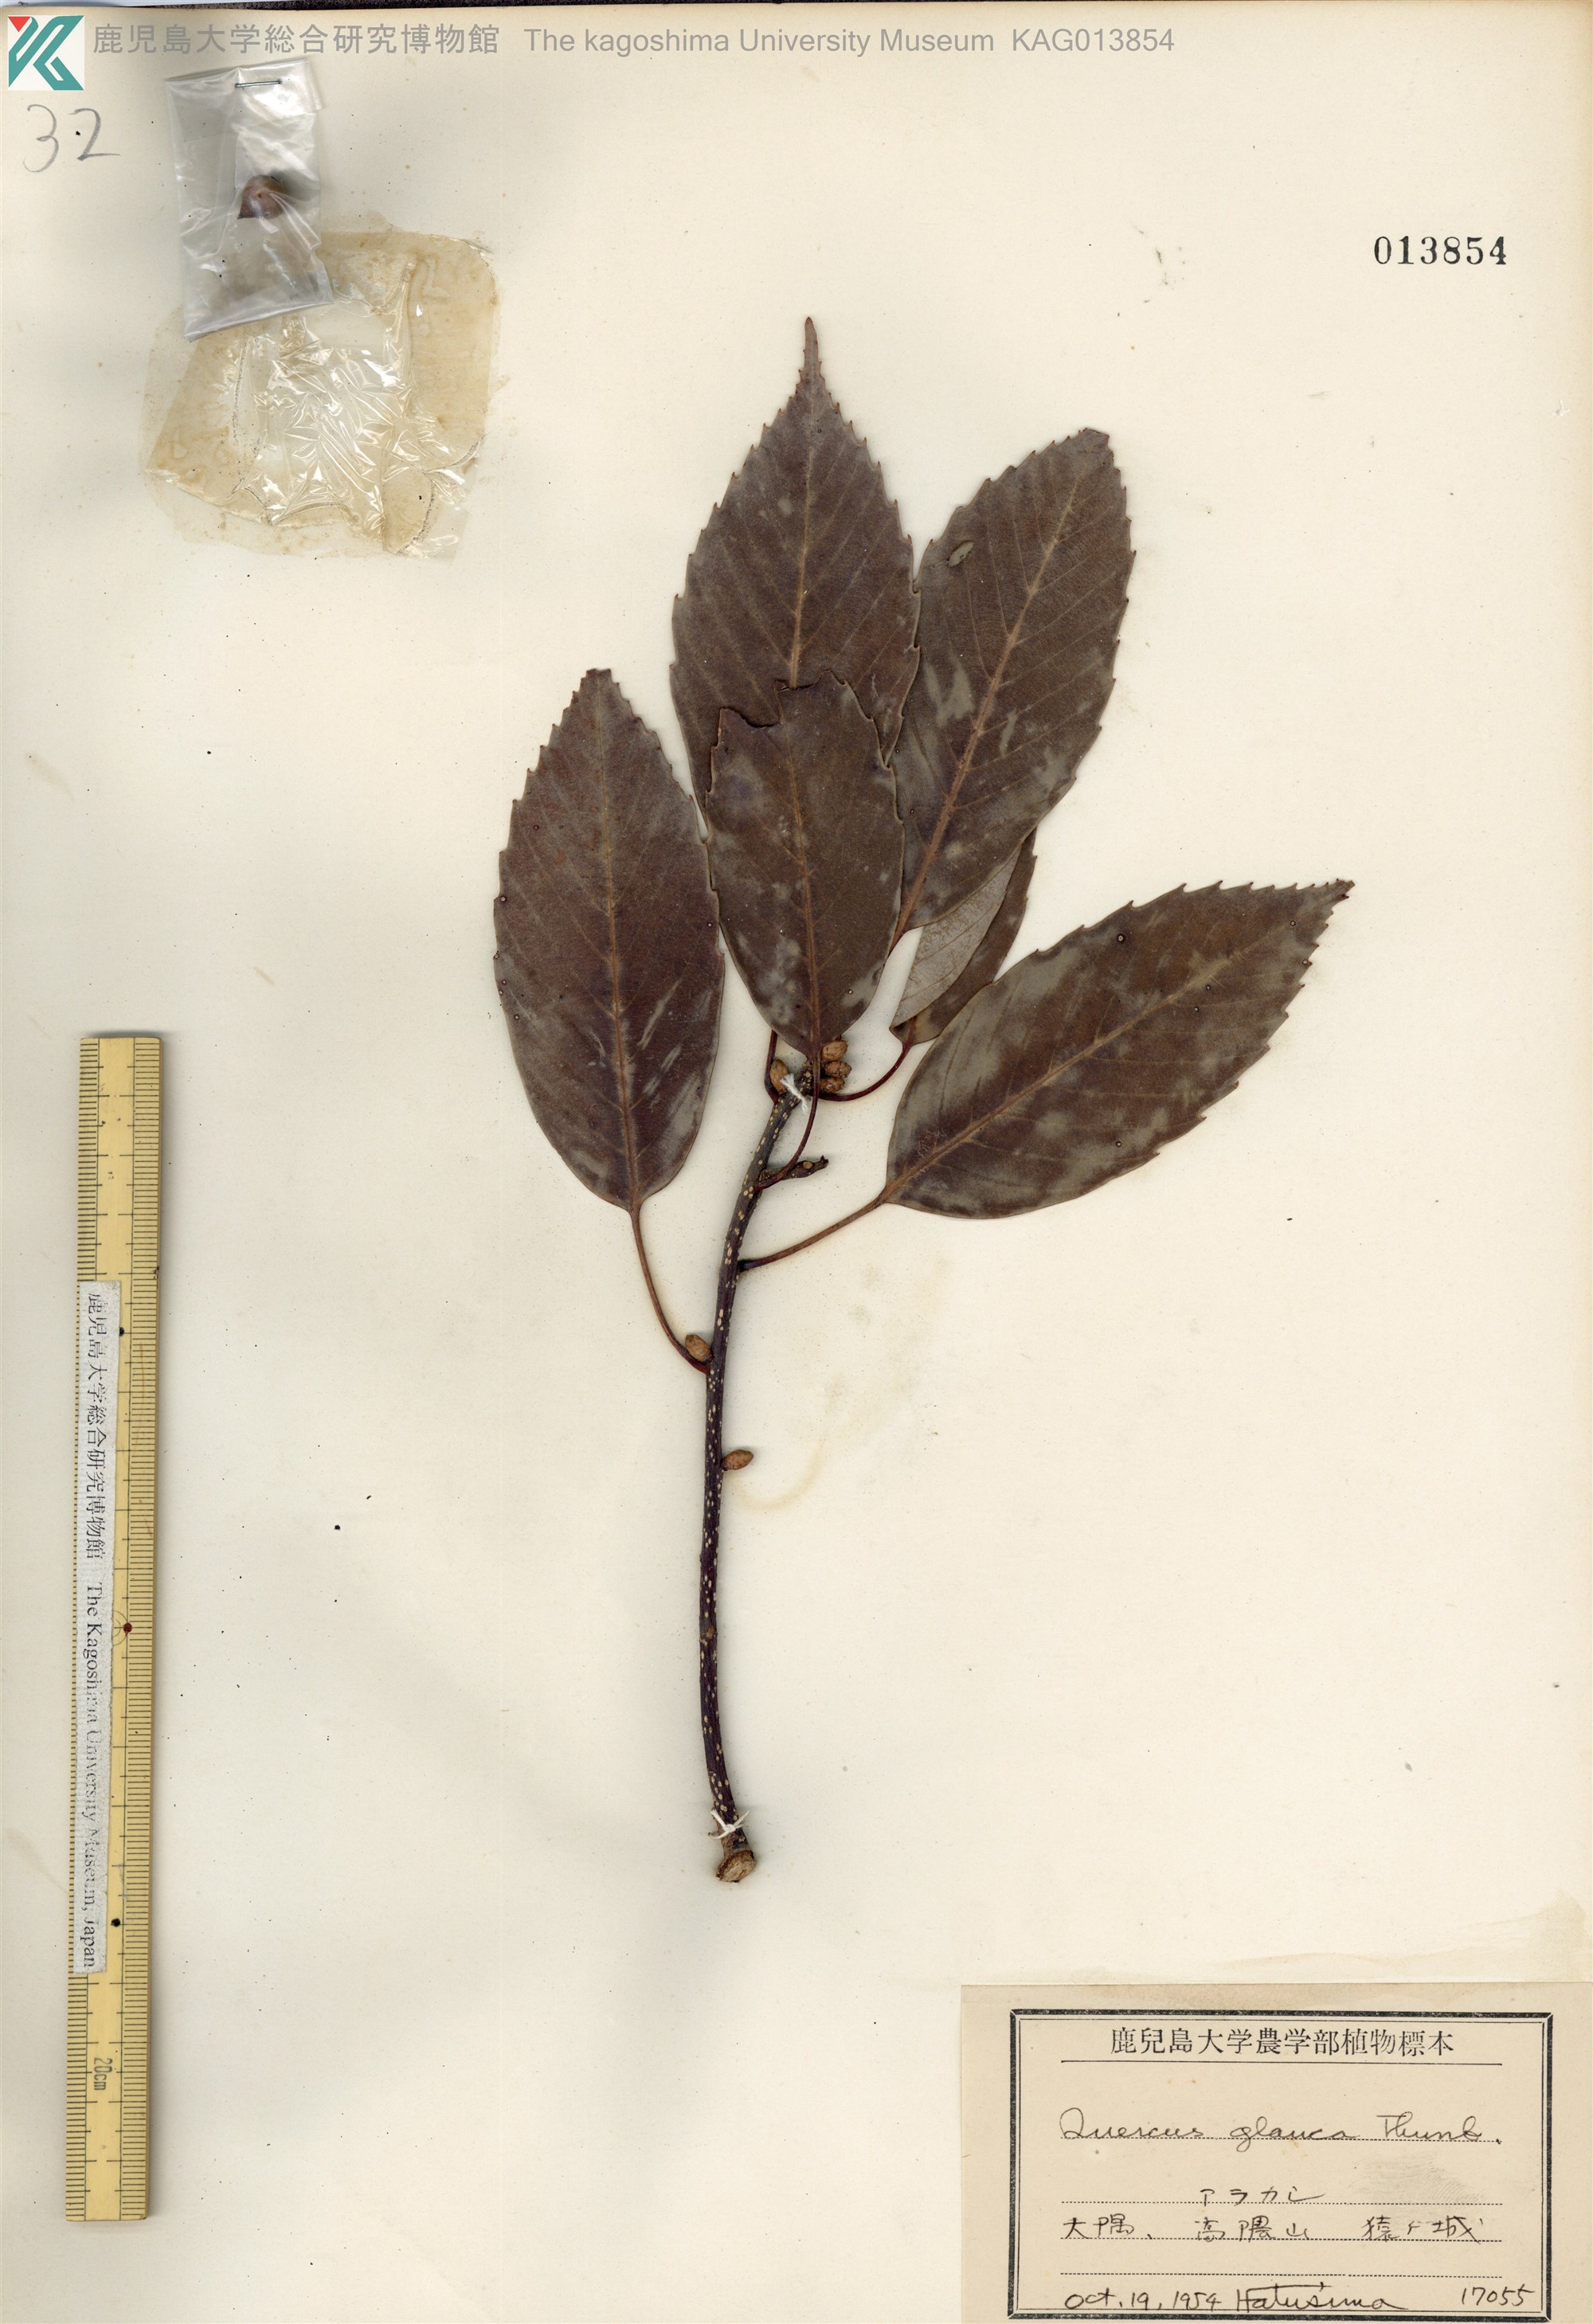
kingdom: Plantae
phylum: Tracheophyta
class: Magnoliopsida
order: Fagales
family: Fagaceae
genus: Quercus
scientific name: Quercus glauca
